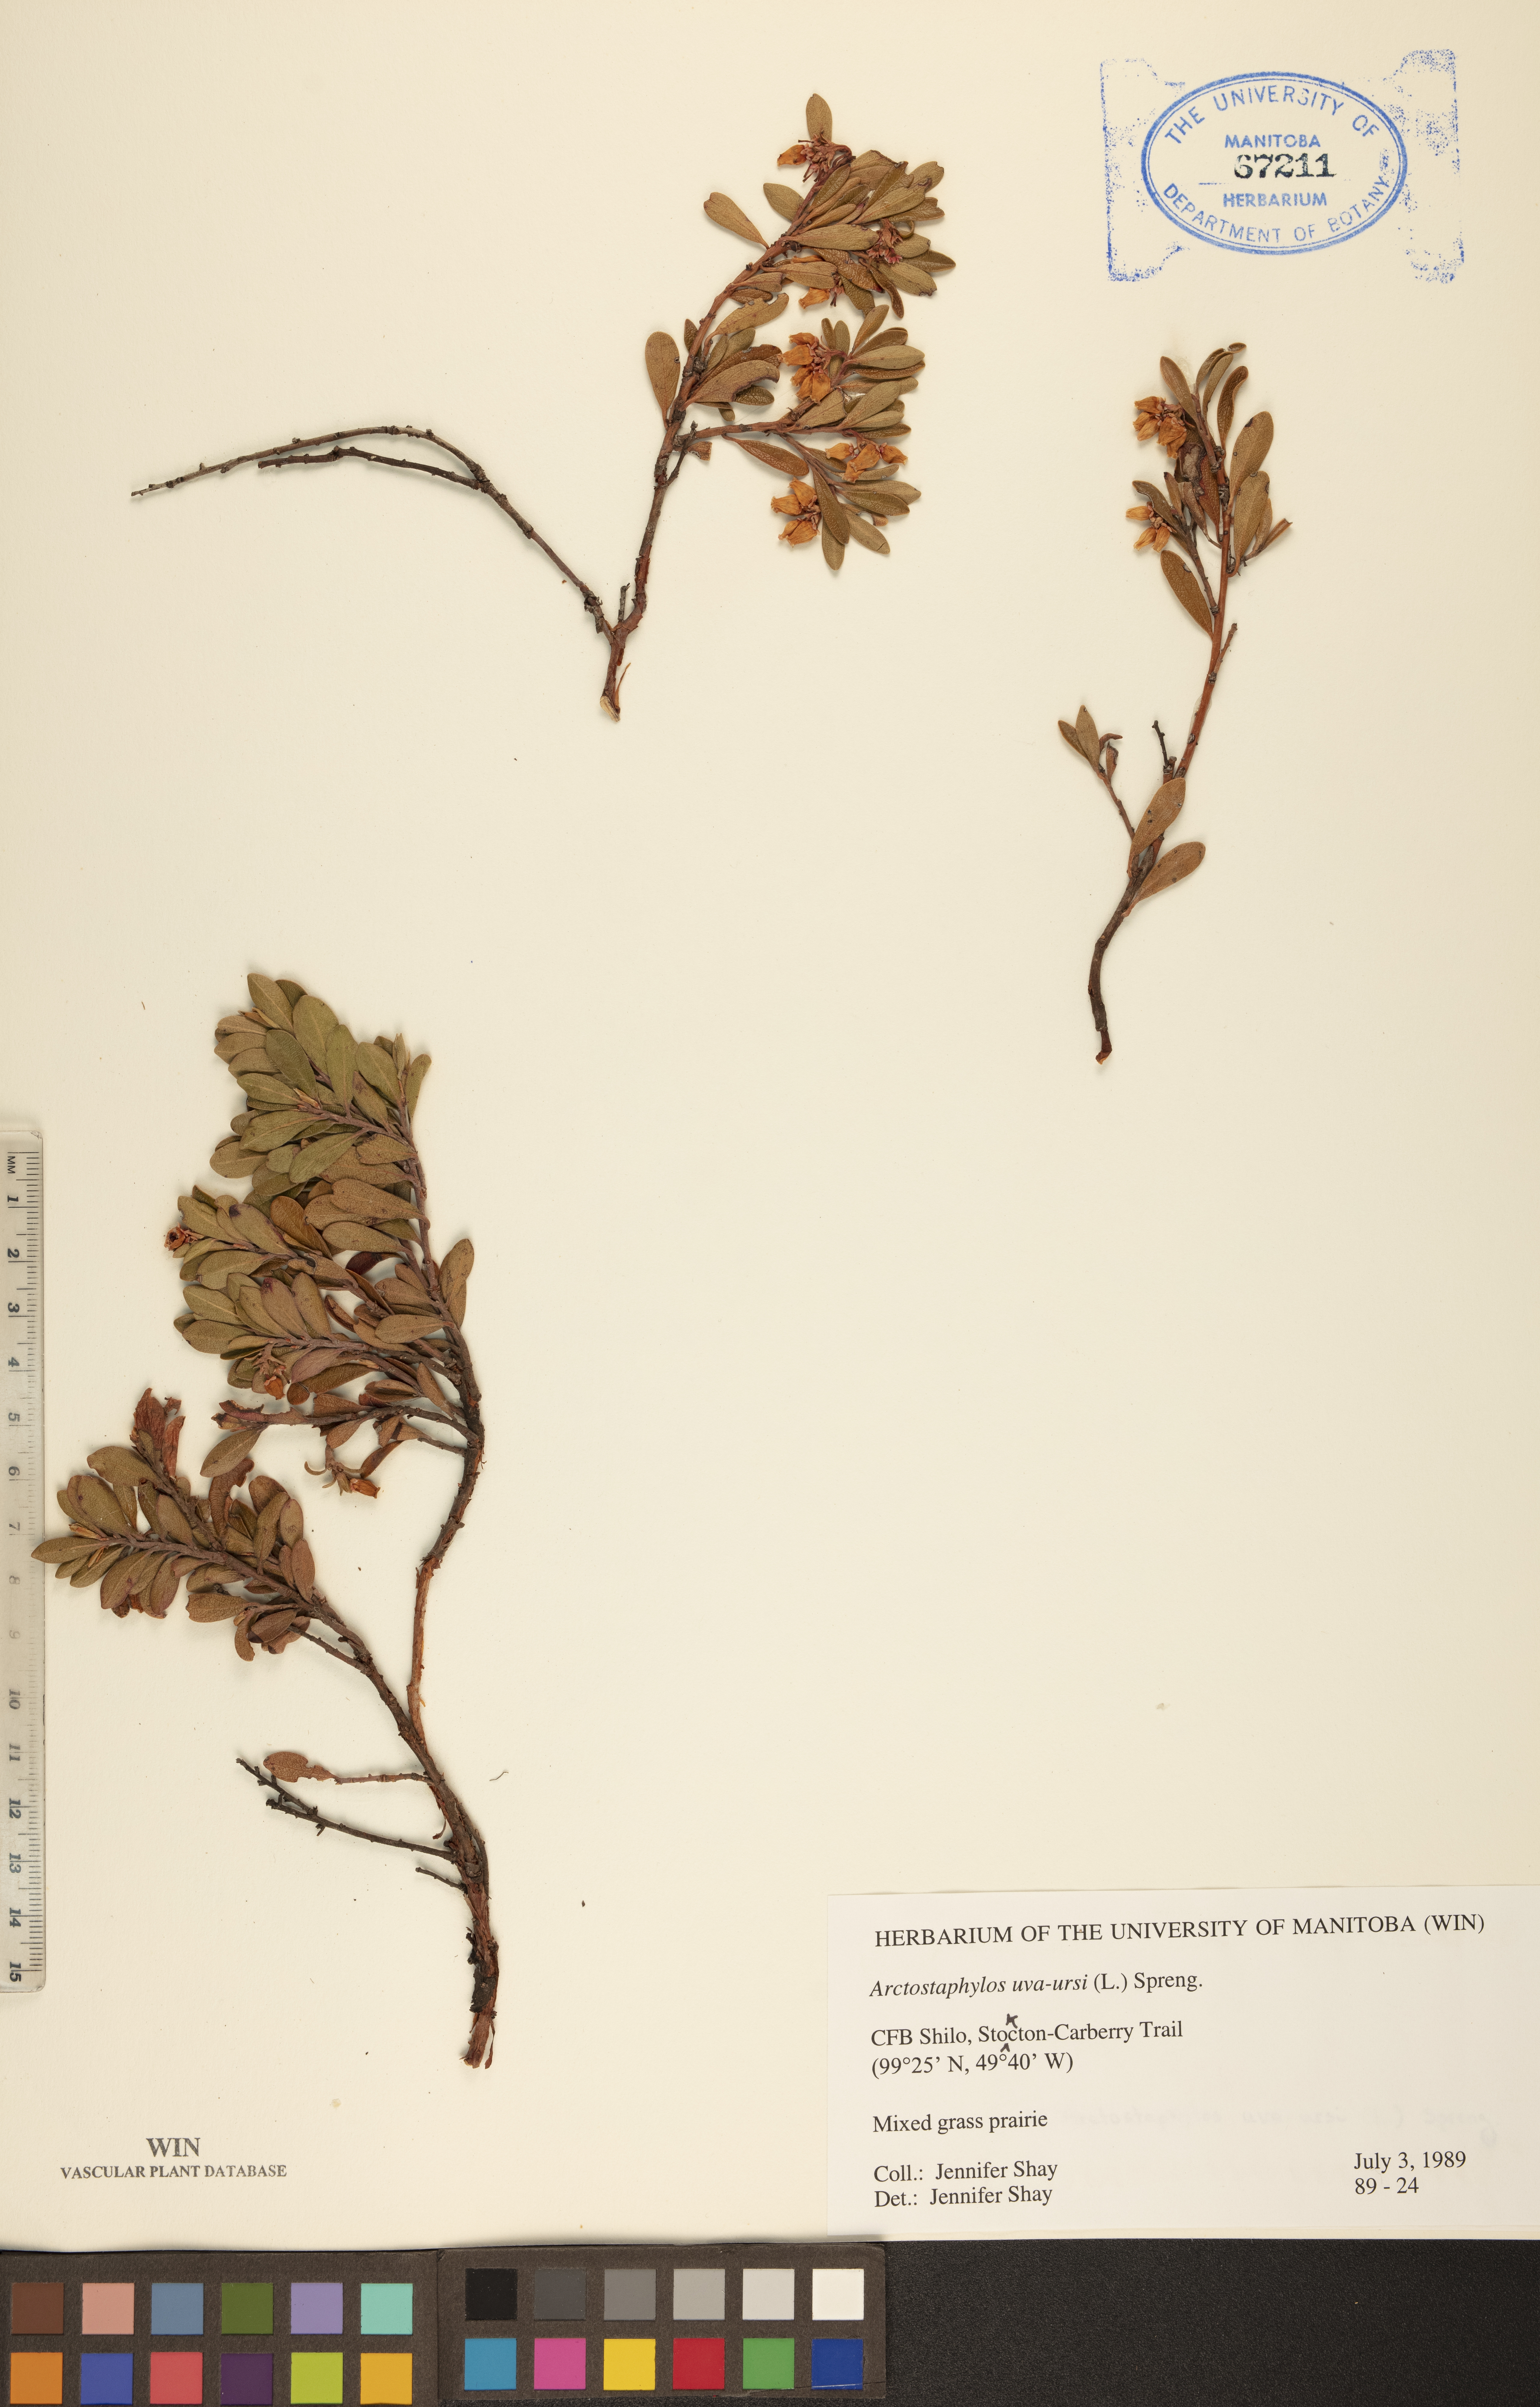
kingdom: Plantae
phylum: Tracheophyta
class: Magnoliopsida
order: Ericales
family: Ericaceae
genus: Arctostaphylos
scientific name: Arctostaphylos uva-ursi
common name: Bearberry
